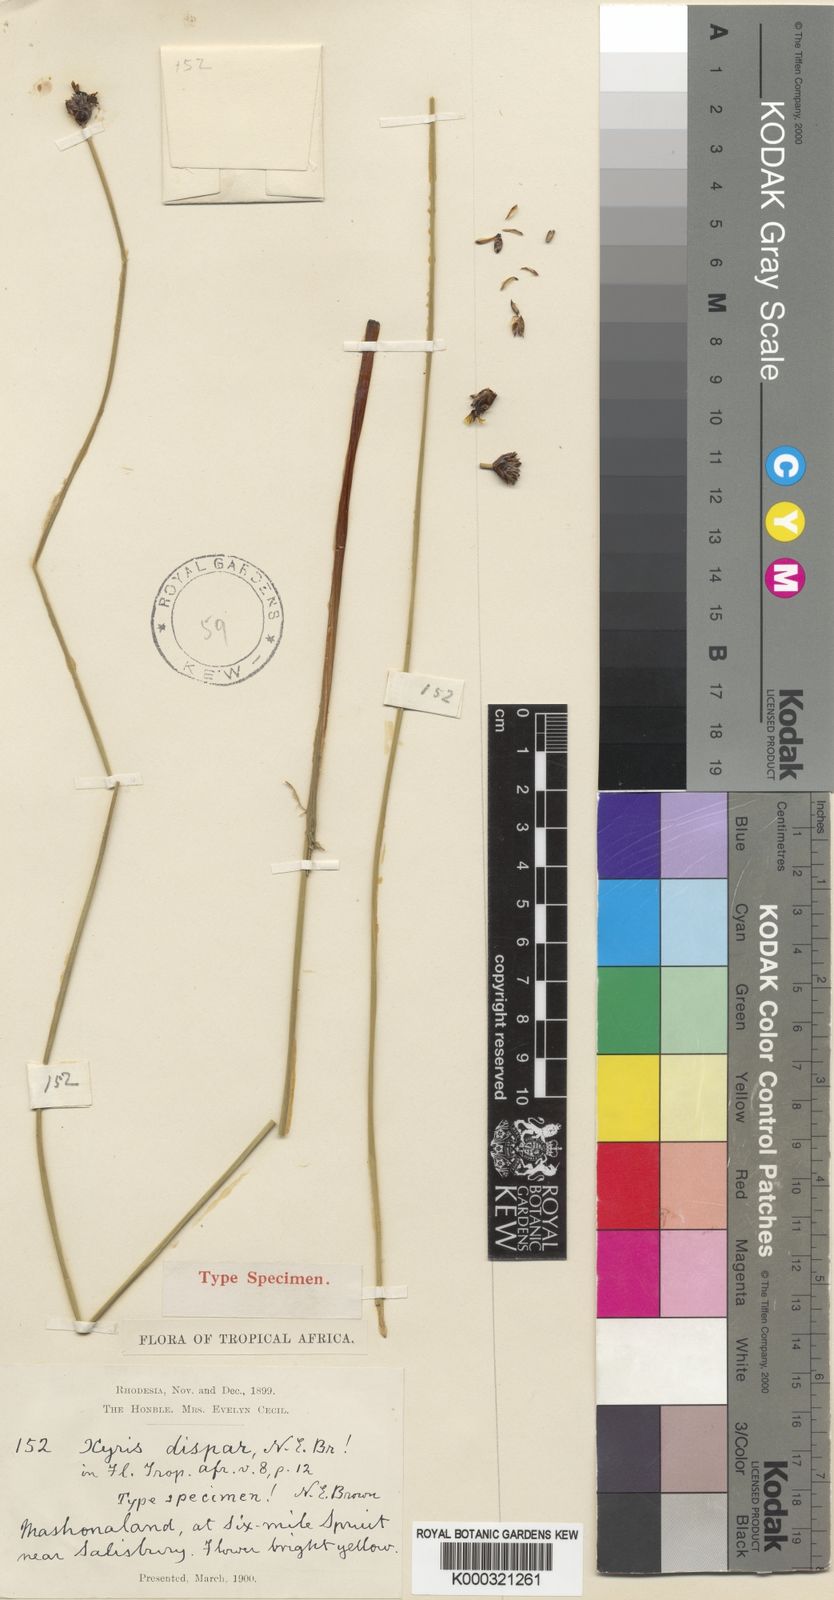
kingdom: Plantae
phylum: Tracheophyta
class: Liliopsida
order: Poales
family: Xyridaceae
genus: Xyris
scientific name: Xyris rehmannii
